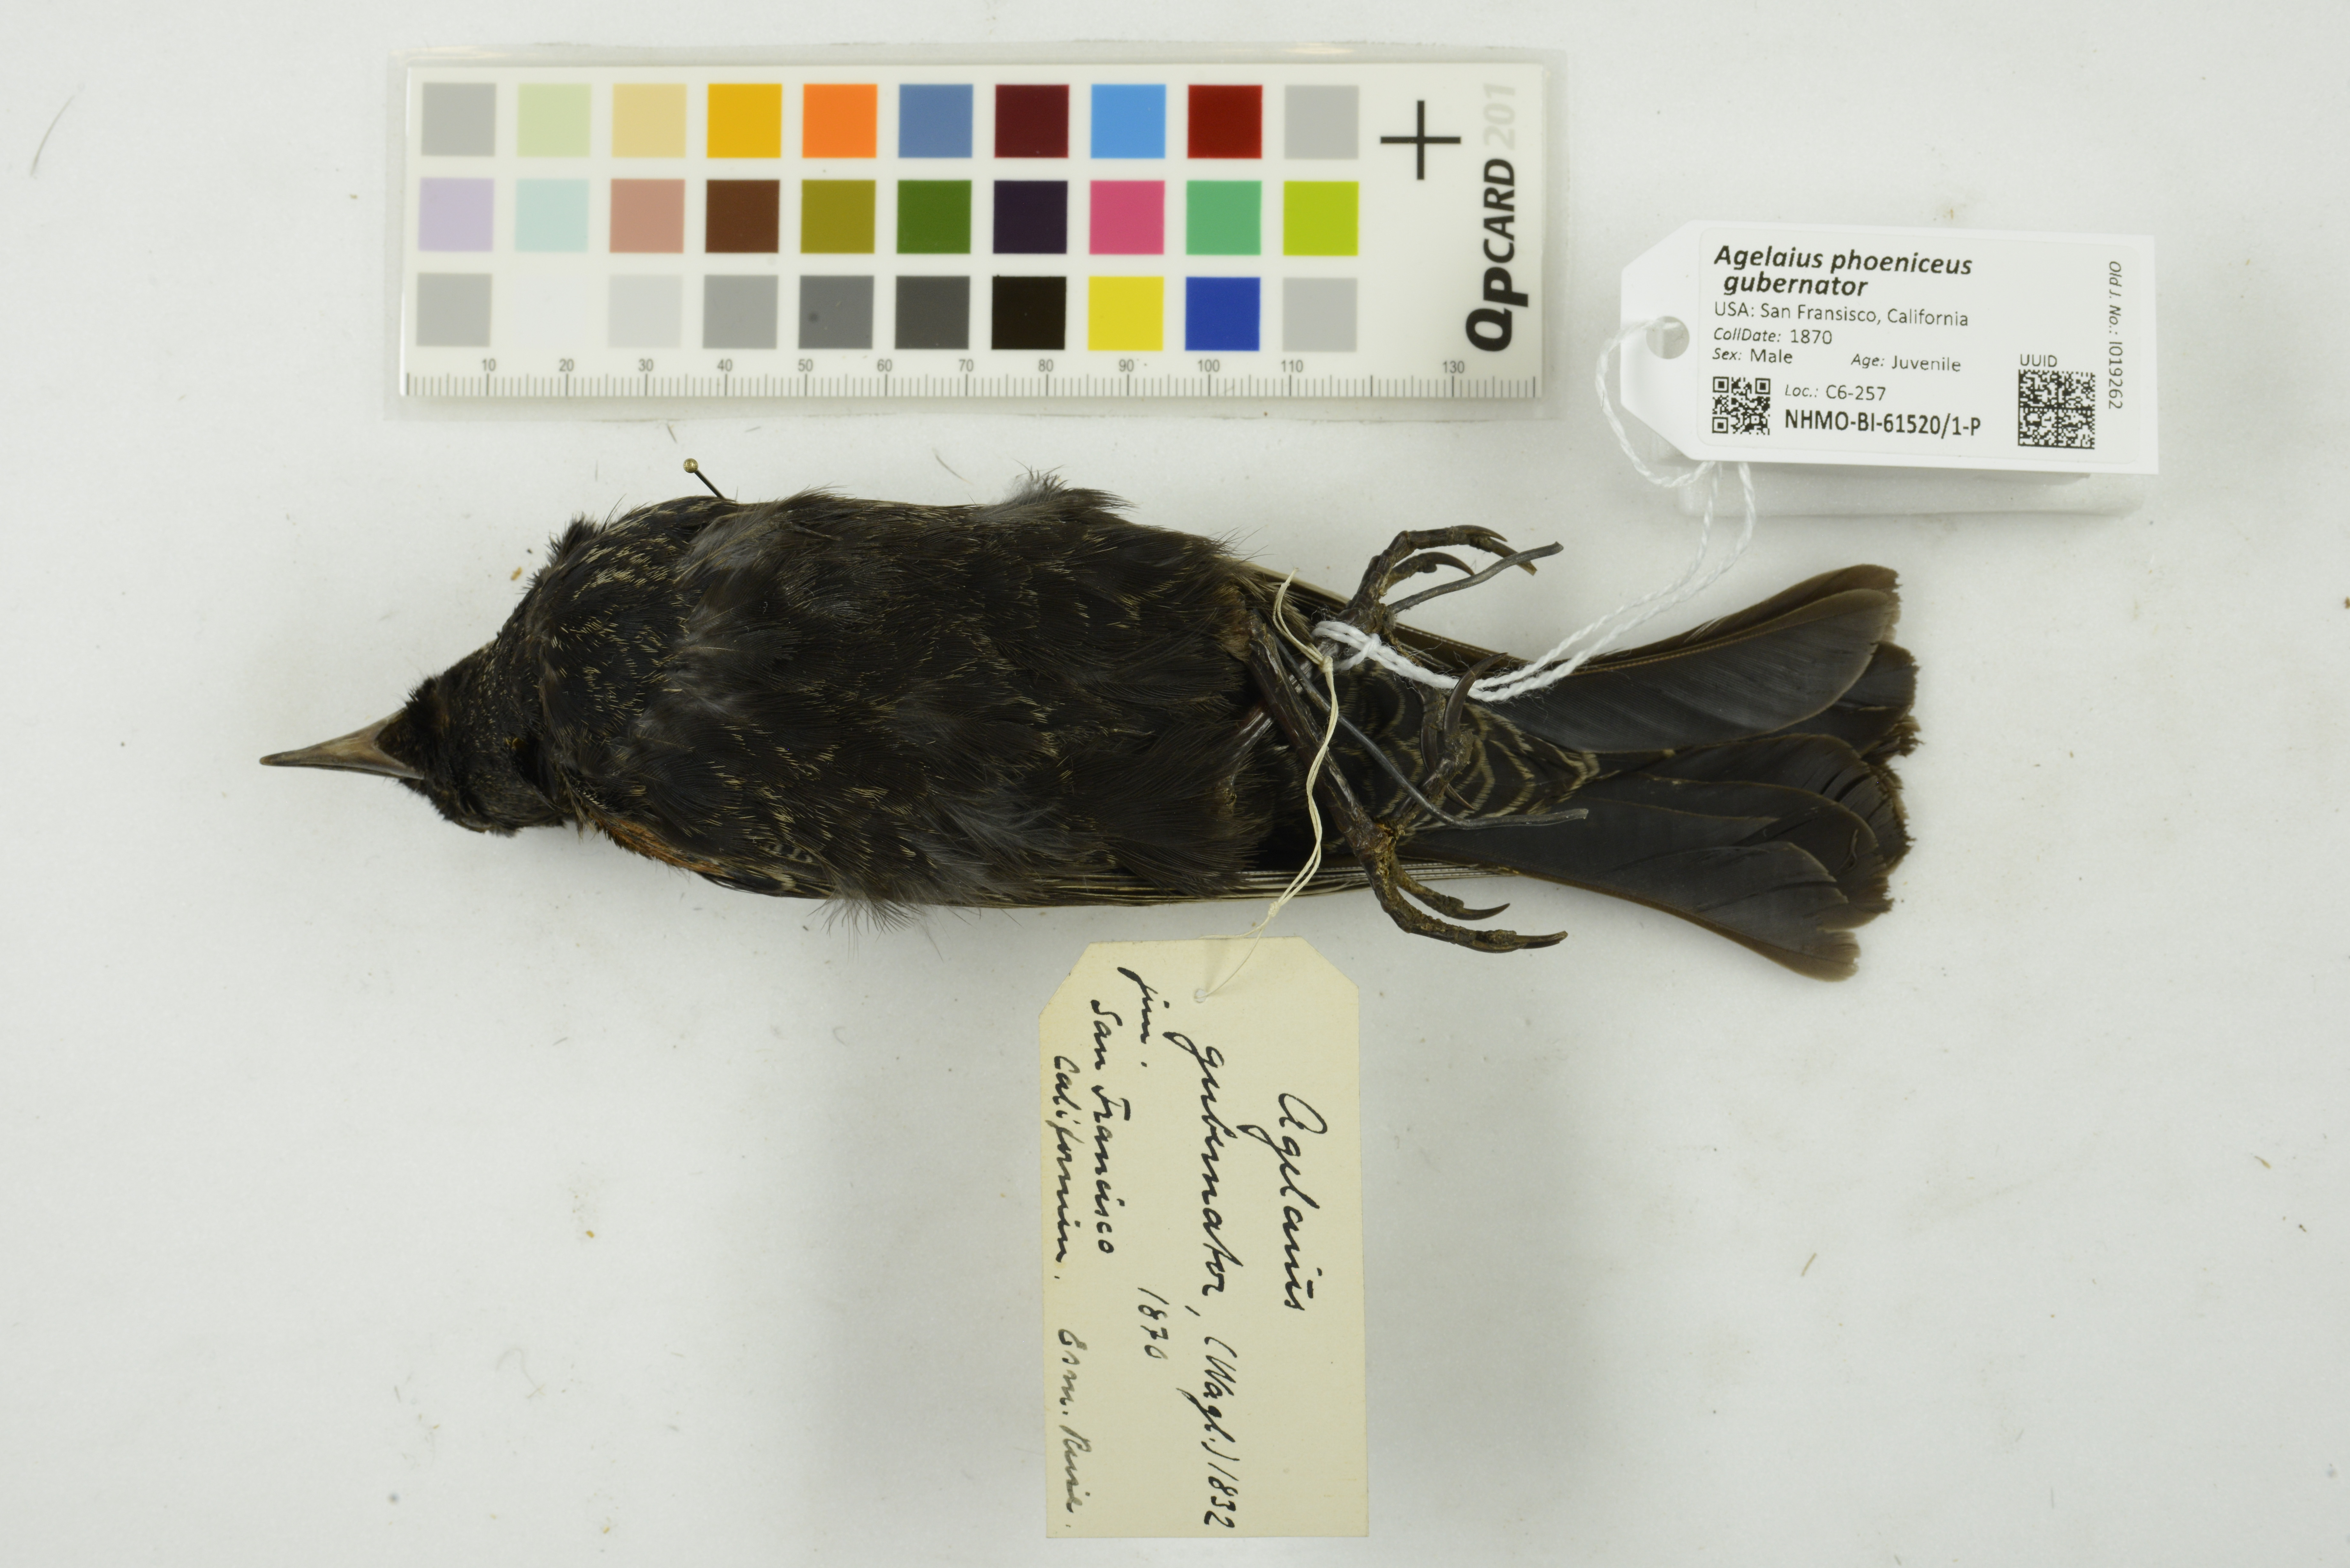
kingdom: Animalia
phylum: Chordata
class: Aves
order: Passeriformes
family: Icteridae
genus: Agelaius
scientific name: Agelaius phoeniceus
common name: Red-winged blackbird
